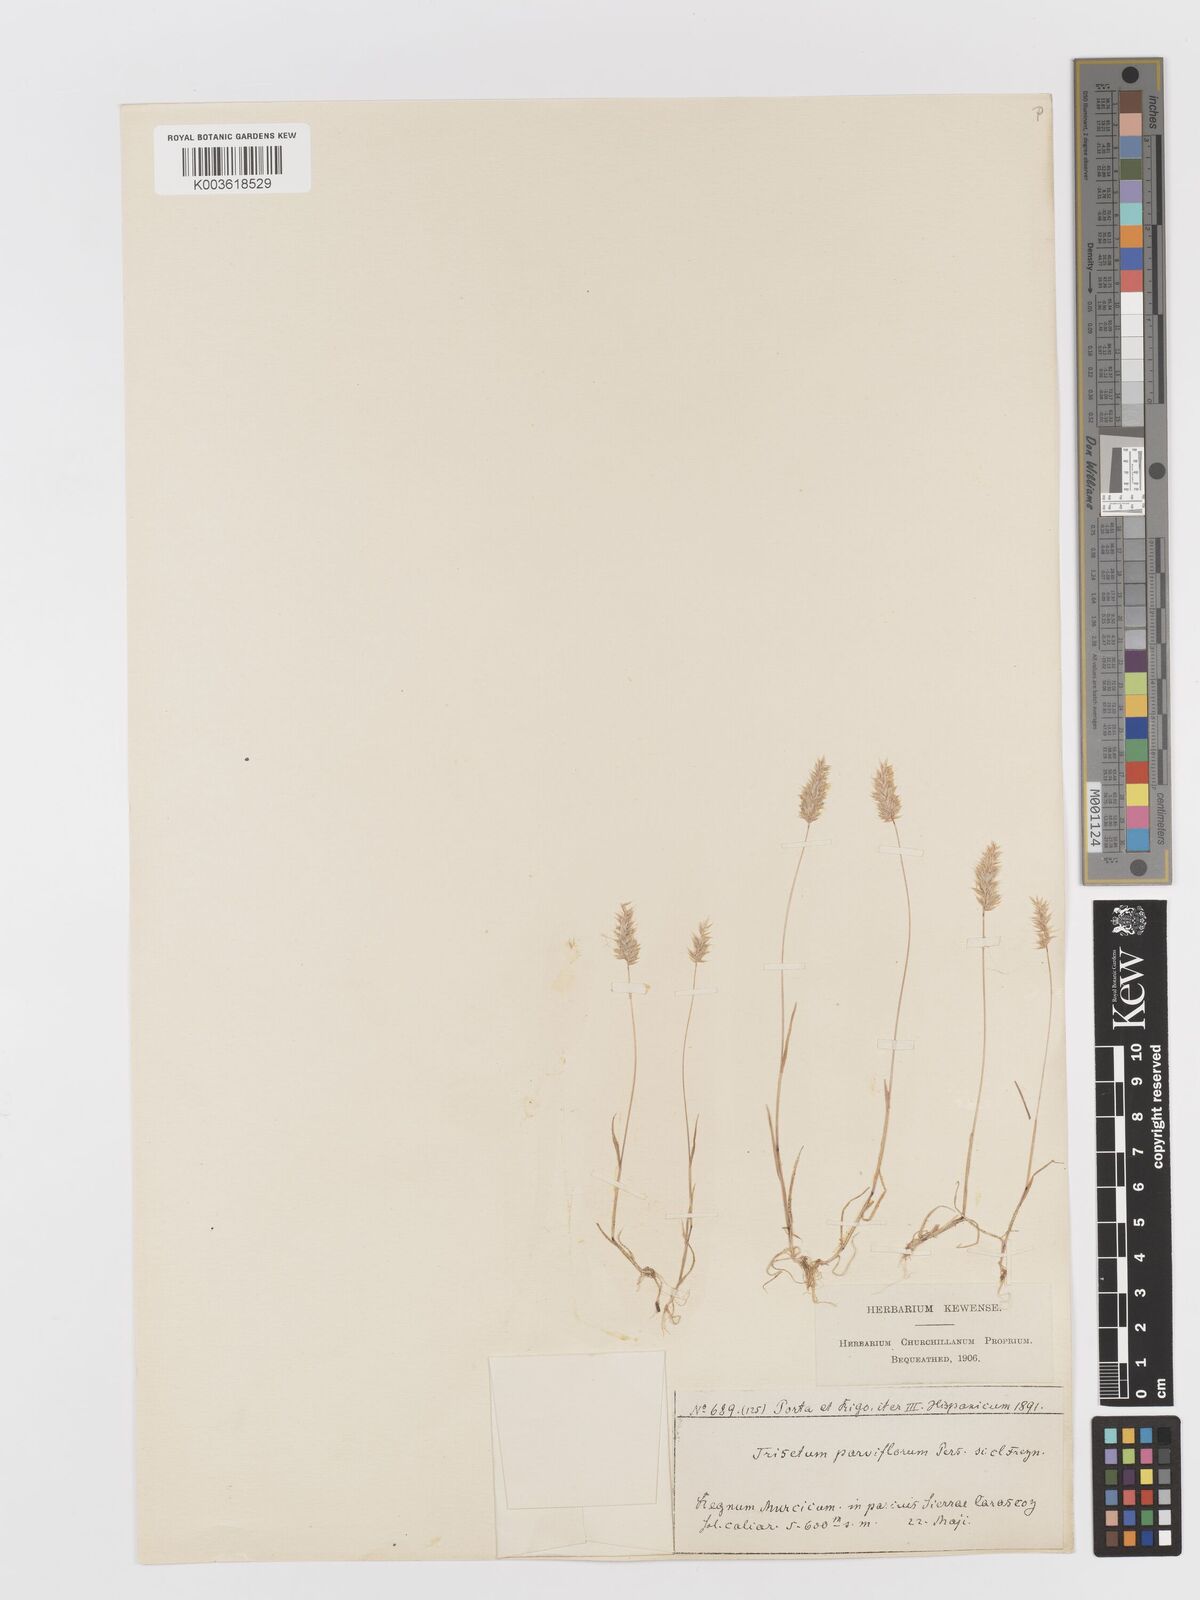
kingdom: Plantae
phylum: Tracheophyta
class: Liliopsida
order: Poales
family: Poaceae
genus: Rostraria
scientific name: Rostraria cristata
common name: Mediterranean hair-grass
